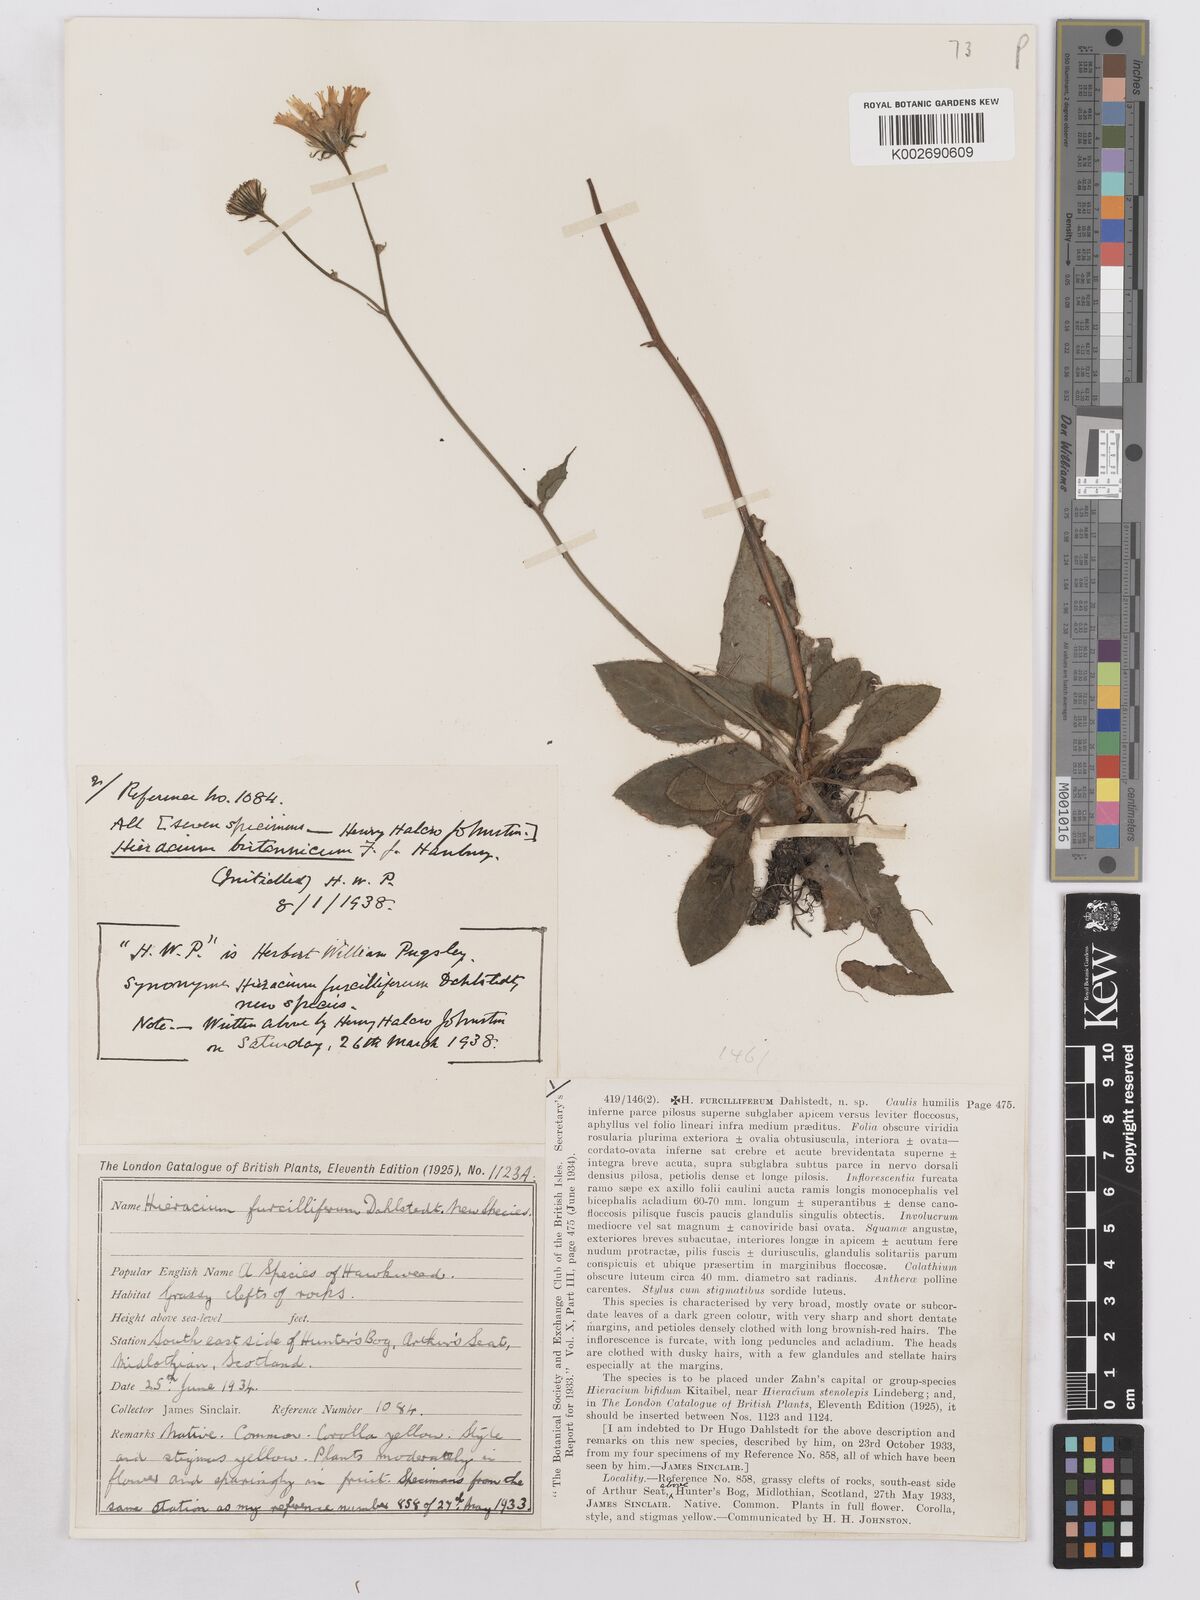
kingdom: Plantae
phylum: Tracheophyta
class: Magnoliopsida
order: Asterales
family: Asteraceae
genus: Hieracium
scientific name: Hieracium britannicum
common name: British hawkweed
